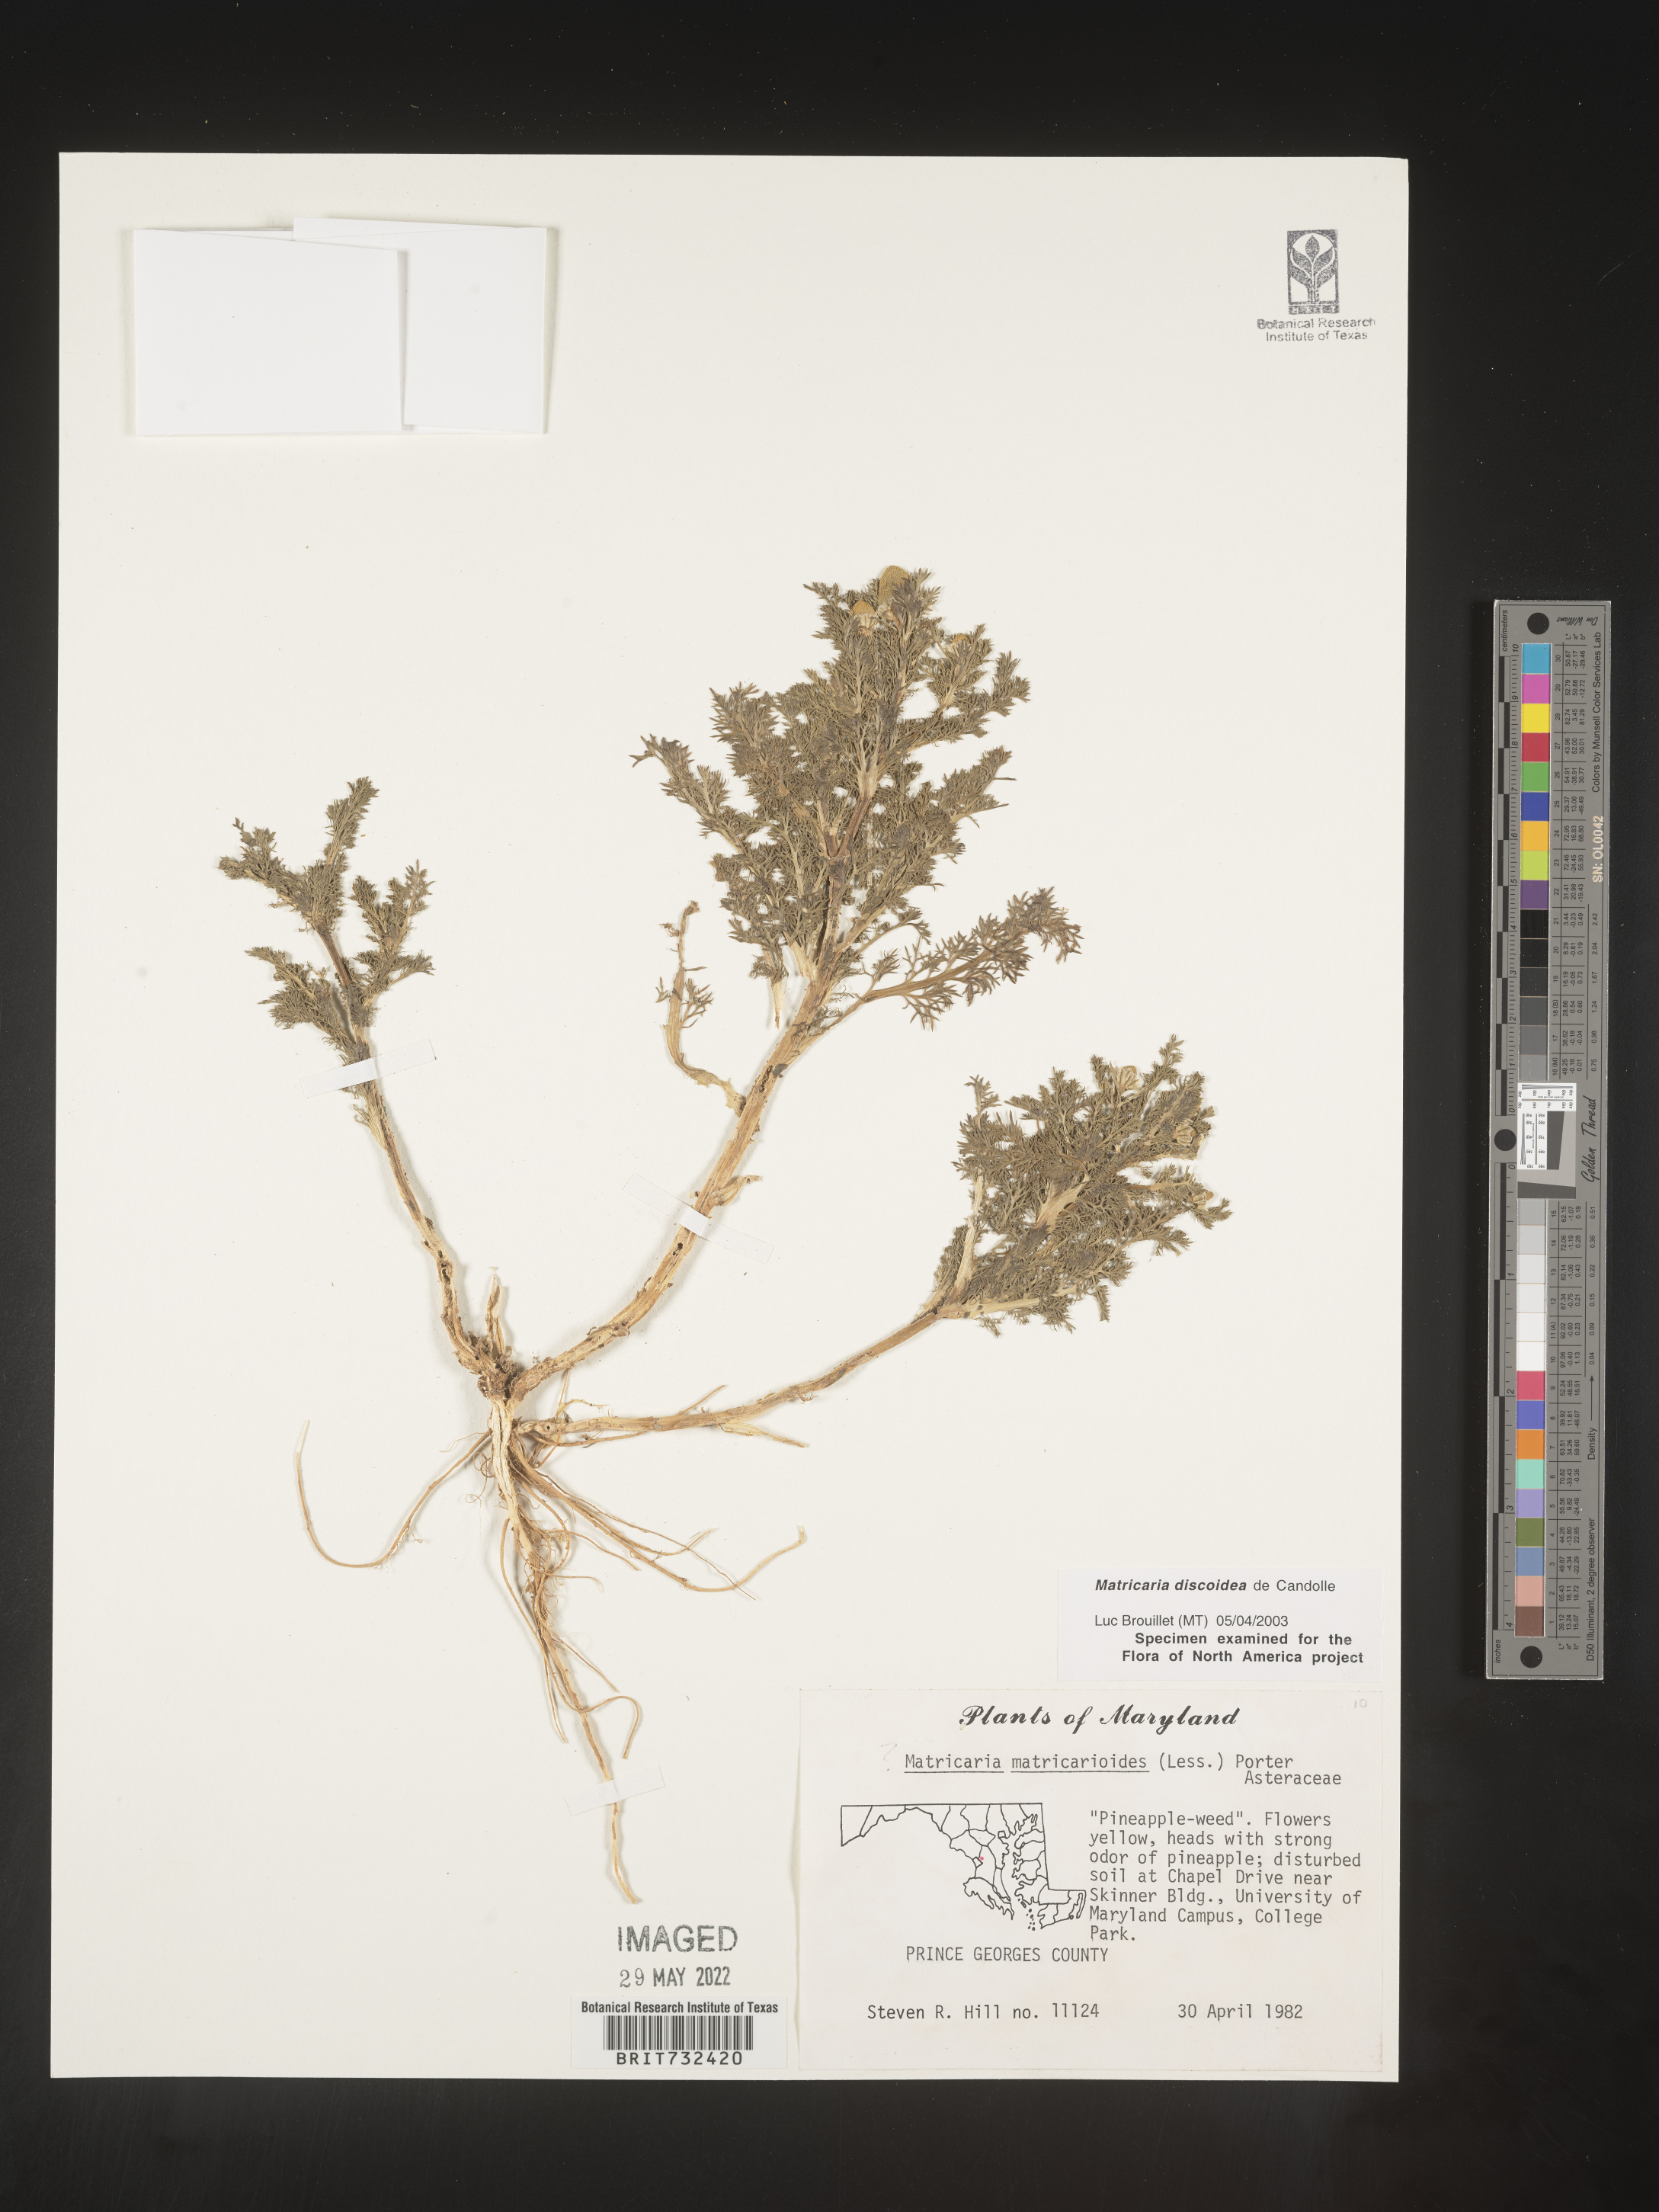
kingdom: Plantae
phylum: Tracheophyta
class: Magnoliopsida
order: Asterales
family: Asteraceae
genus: Matricaria
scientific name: Matricaria discoidea
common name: Disc mayweed
